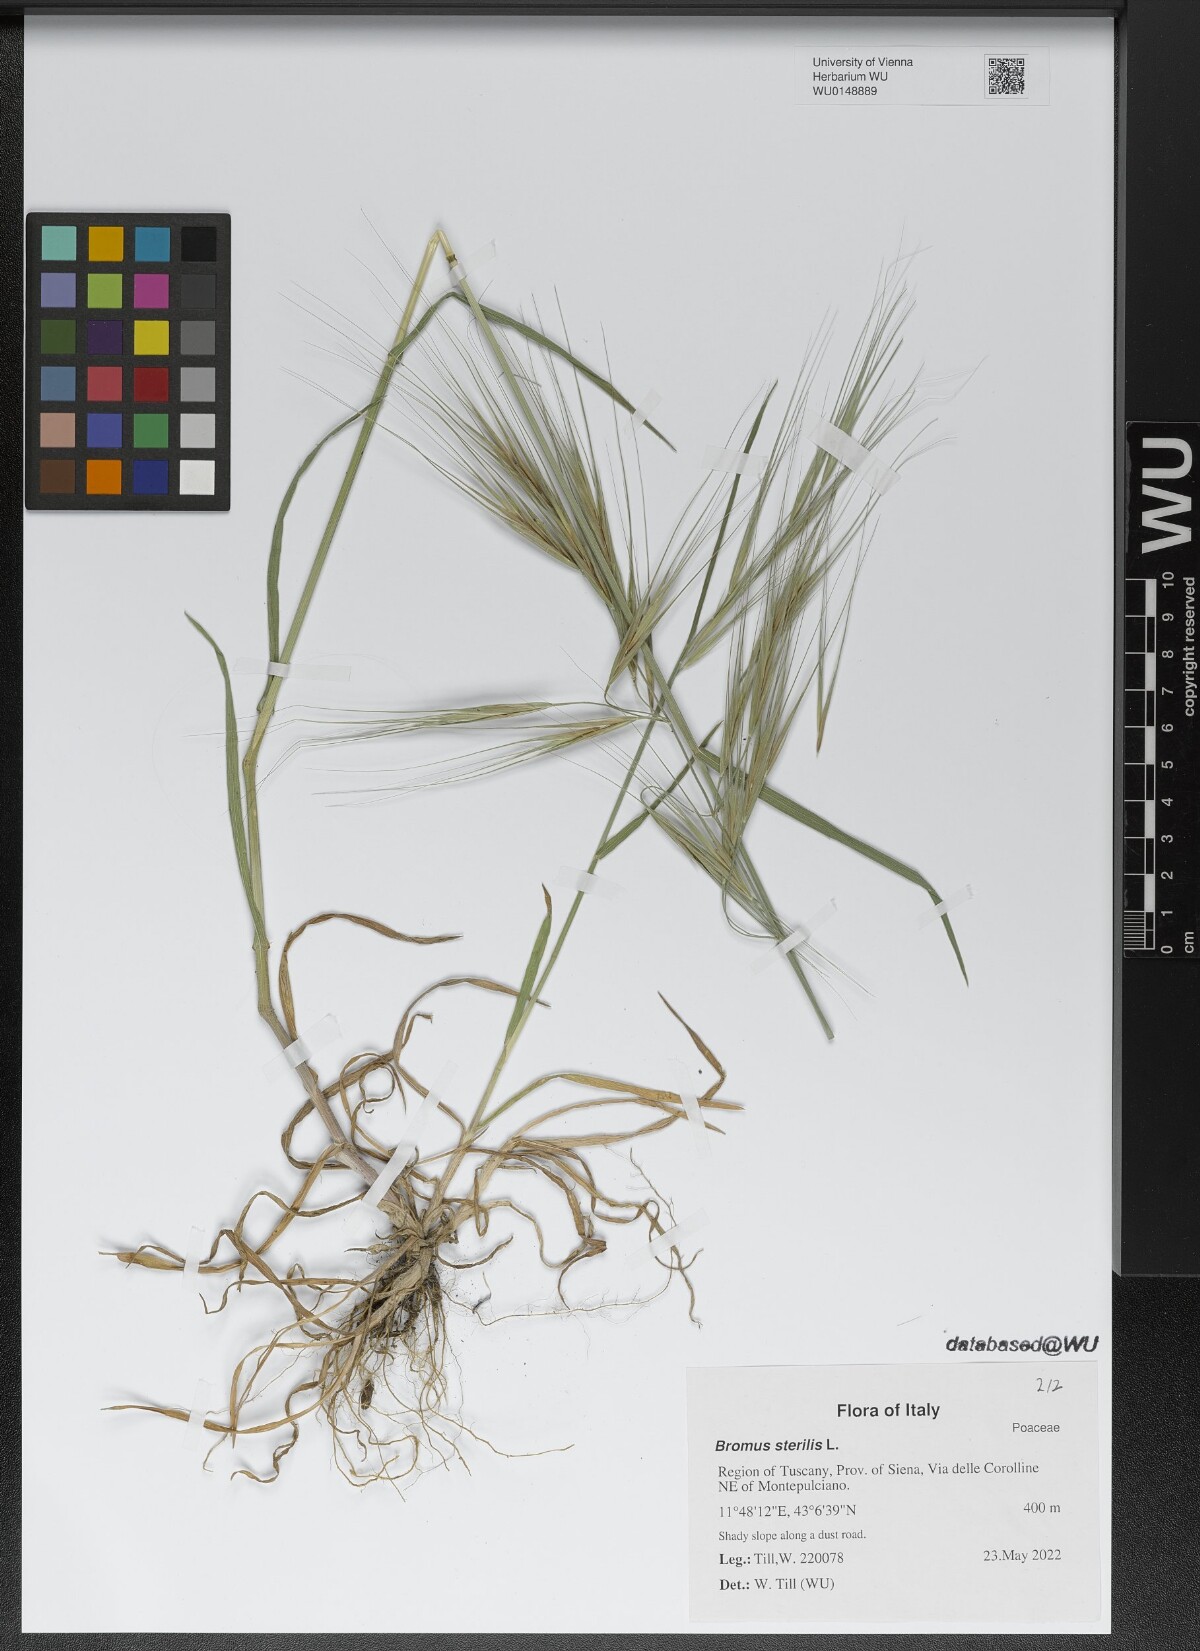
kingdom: Plantae
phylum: Tracheophyta
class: Liliopsida
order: Poales
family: Poaceae
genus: Bromus
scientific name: Bromus sterilis
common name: Poverty brome
